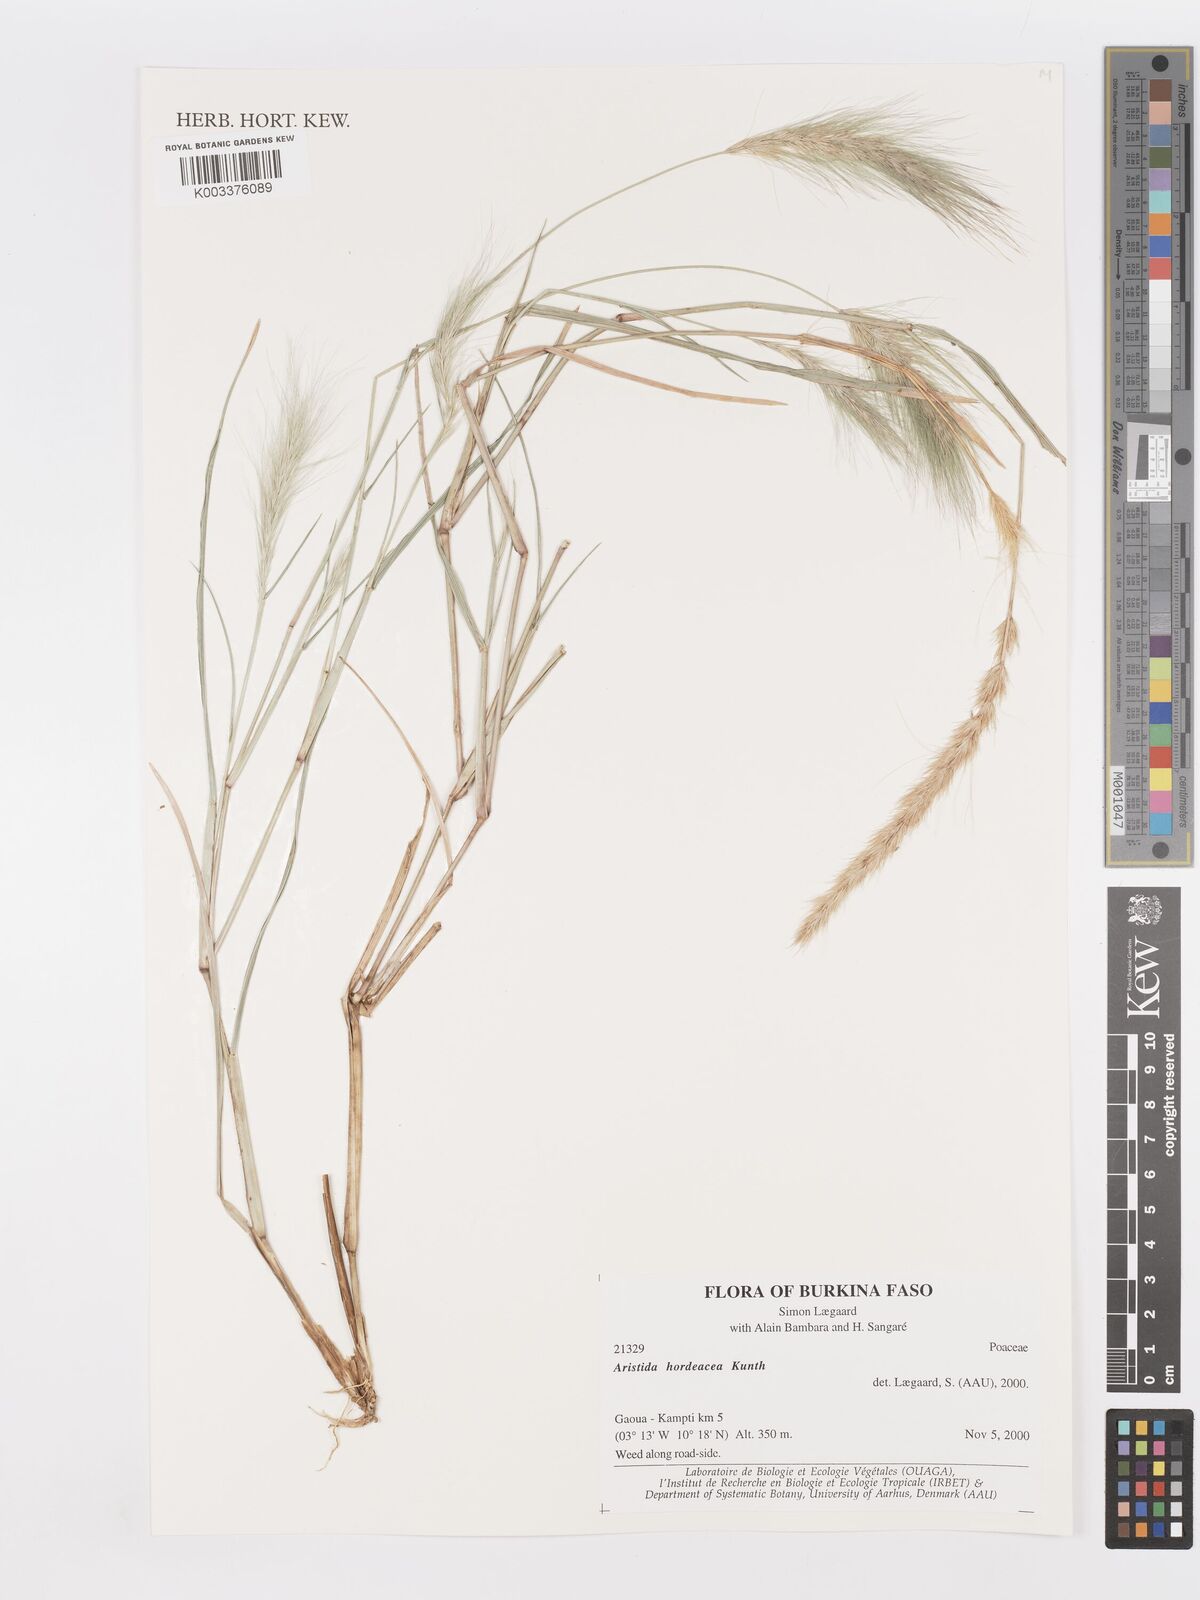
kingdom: Plantae
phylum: Tracheophyta
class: Liliopsida
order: Poales
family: Poaceae
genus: Aristida
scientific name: Aristida hordeacea
